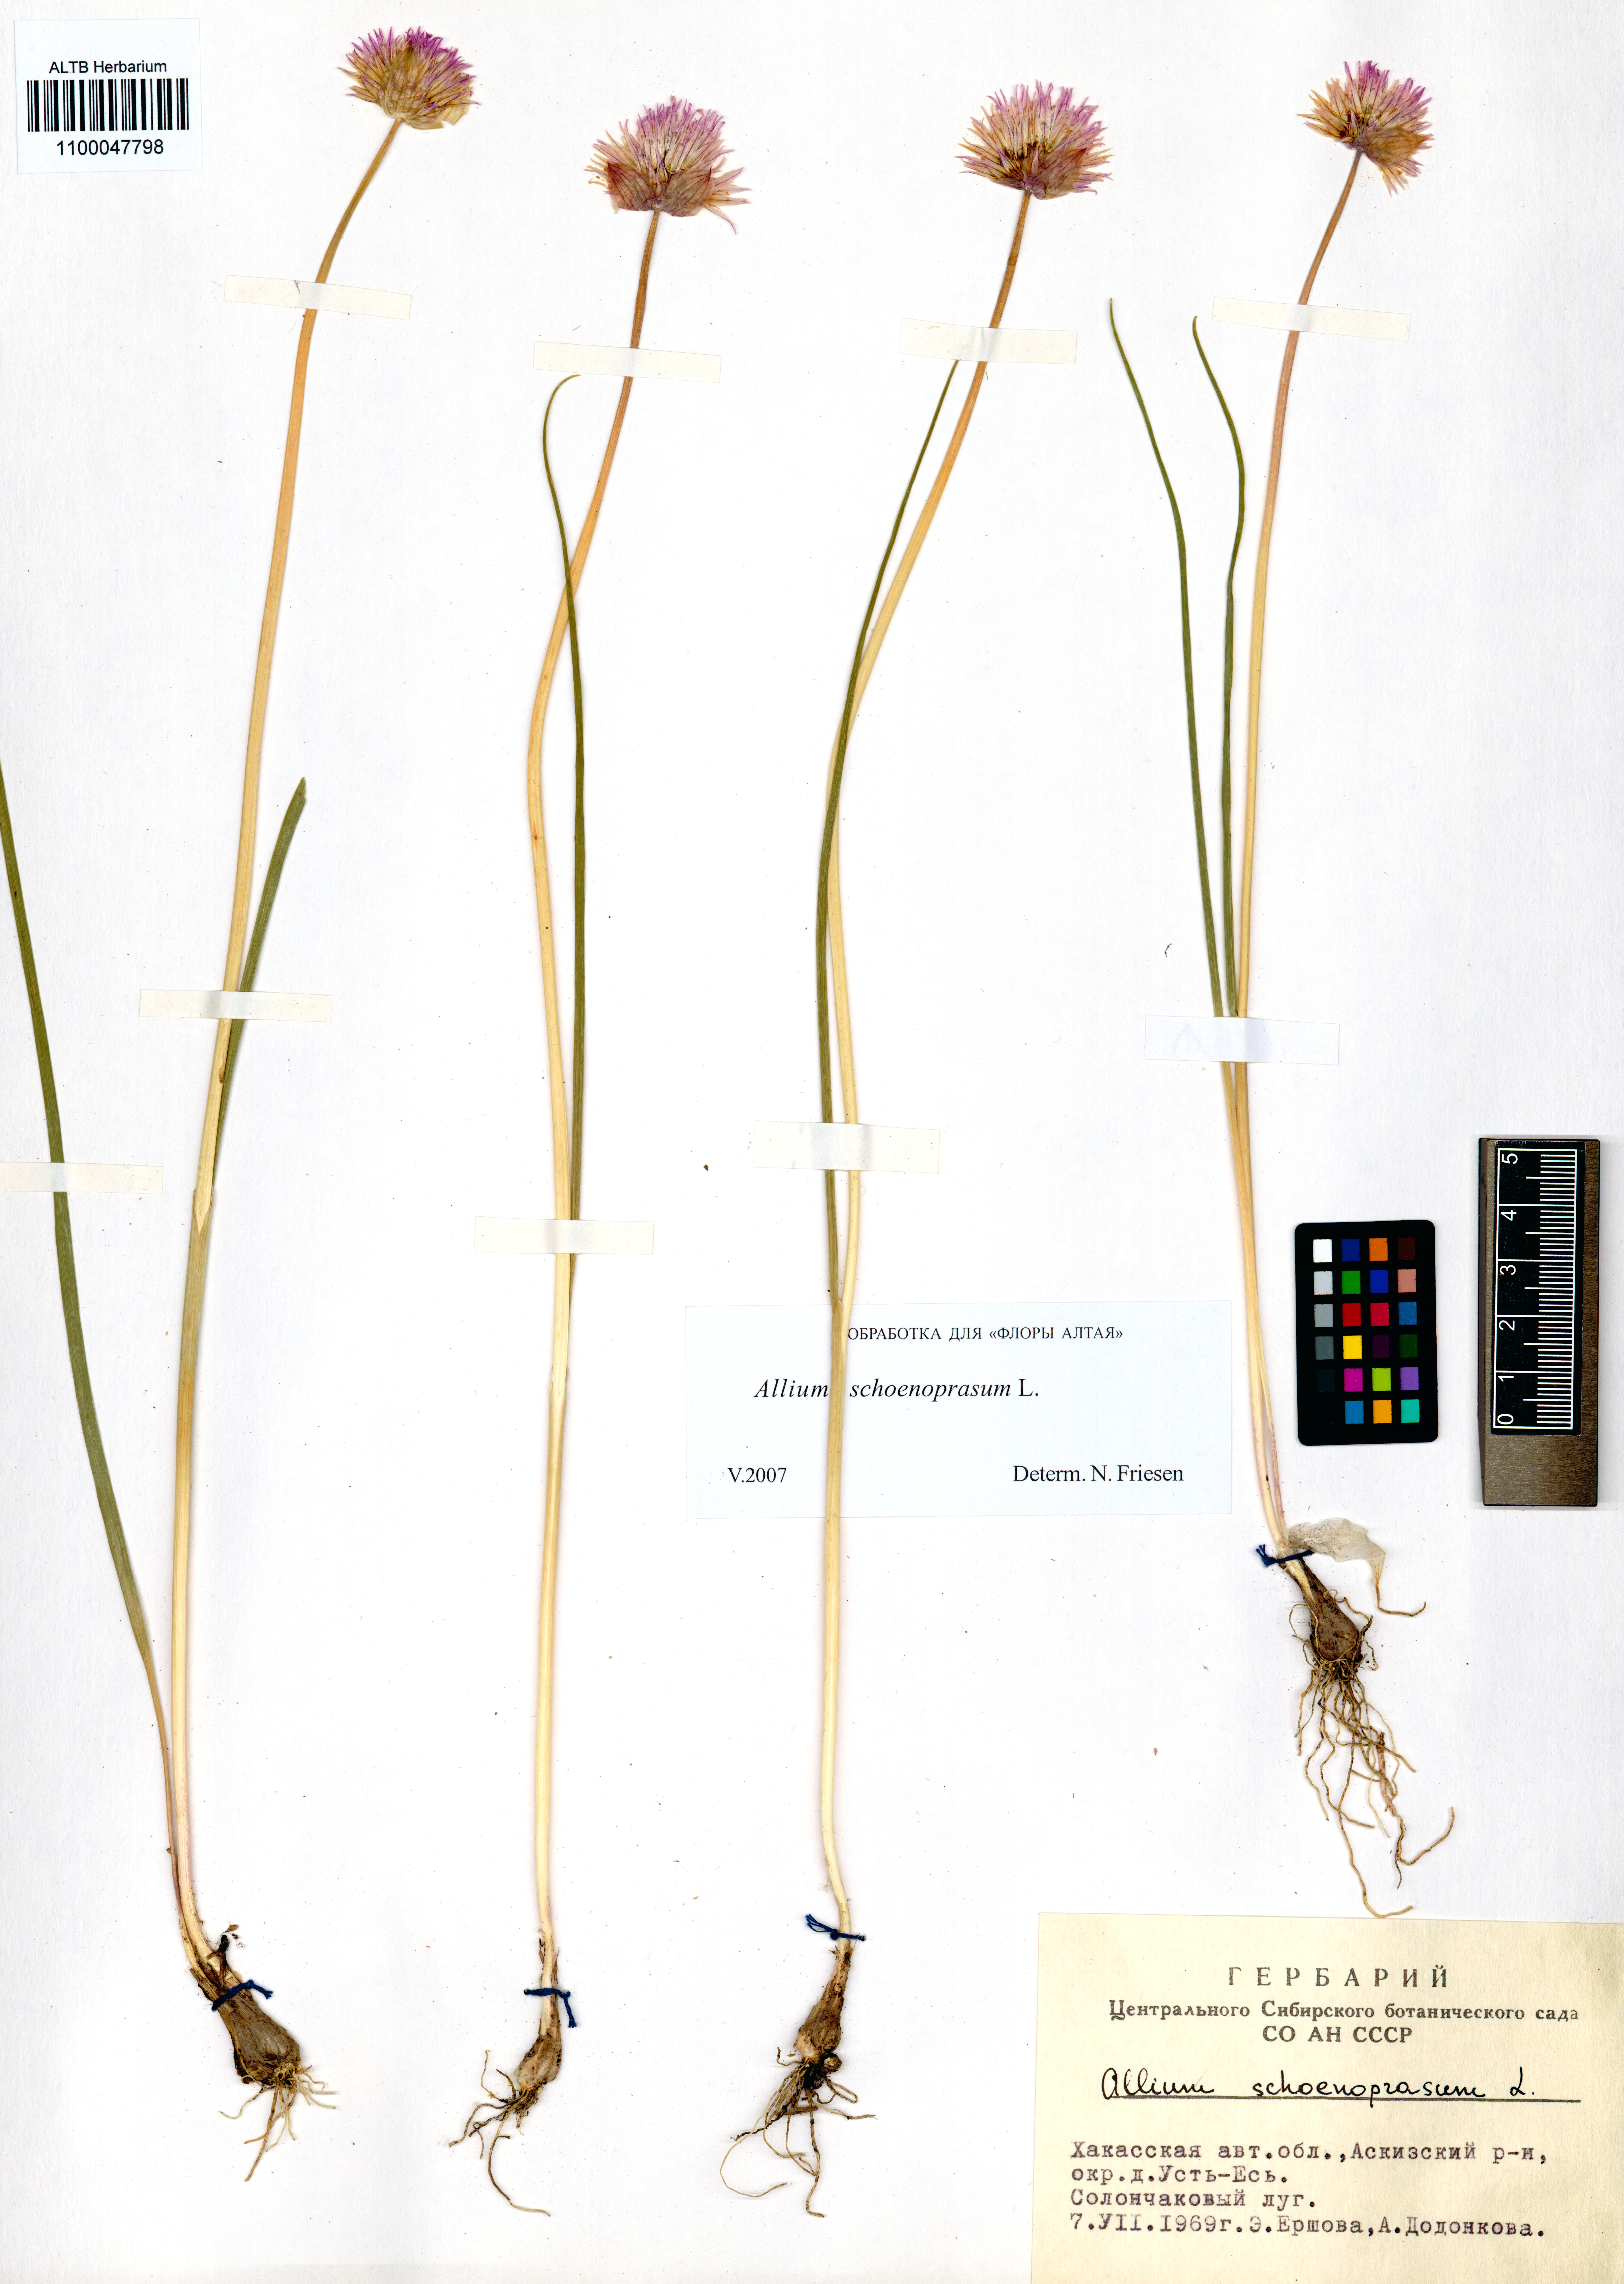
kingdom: Plantae
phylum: Tracheophyta
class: Liliopsida
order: Asparagales
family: Amaryllidaceae
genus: Allium
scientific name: Allium schoenoprasum
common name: Chives
